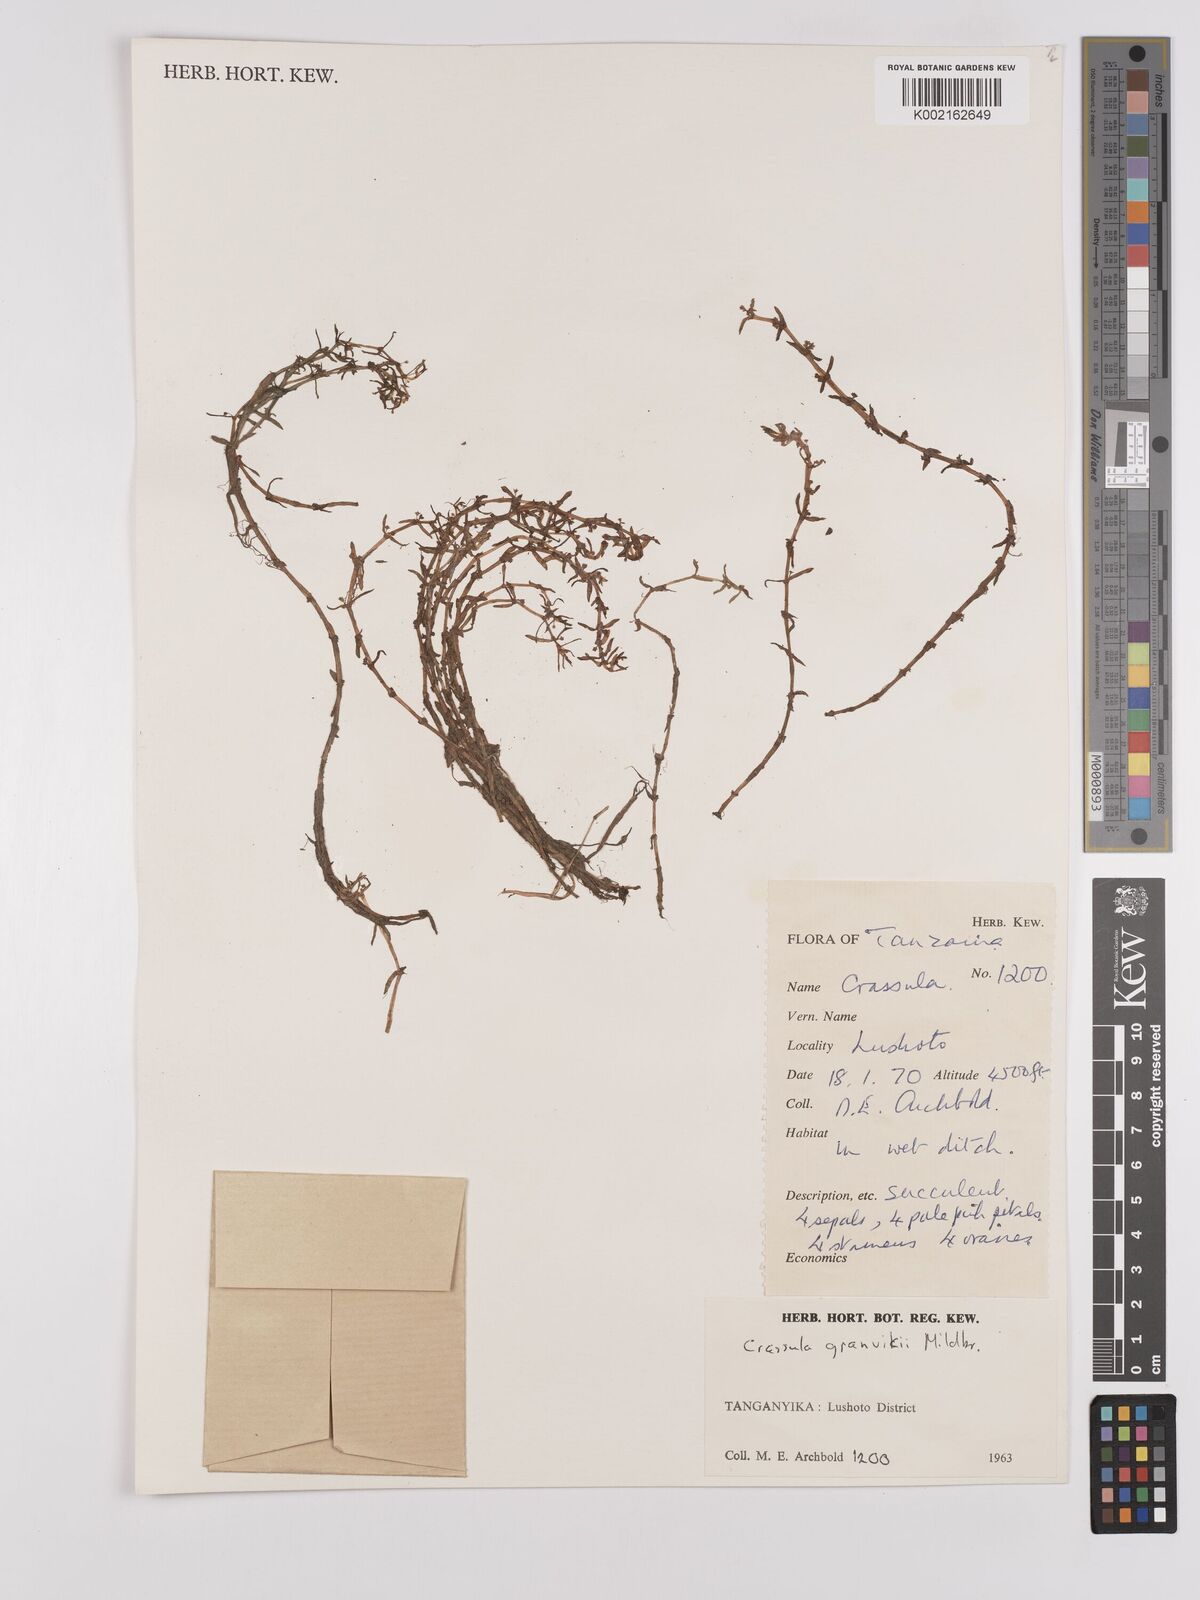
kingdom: Plantae
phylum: Tracheophyta
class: Magnoliopsida
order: Saxifragales
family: Crassulaceae
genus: Crassula
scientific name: Crassula granvikii
